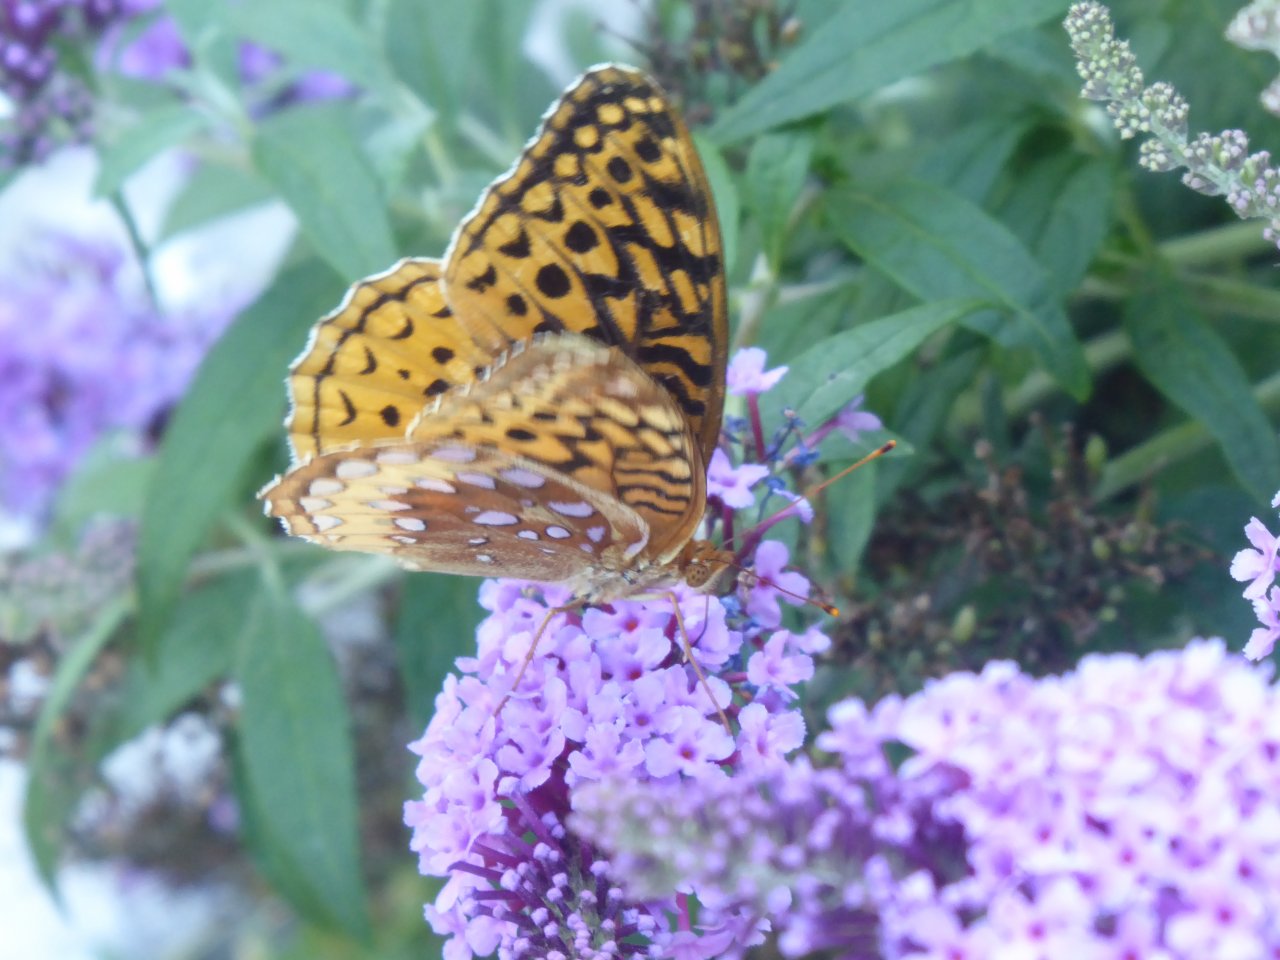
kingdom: Animalia
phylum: Arthropoda
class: Insecta
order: Lepidoptera
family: Nymphalidae
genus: Speyeria
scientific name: Speyeria cybele
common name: Great Spangled Fritillary
